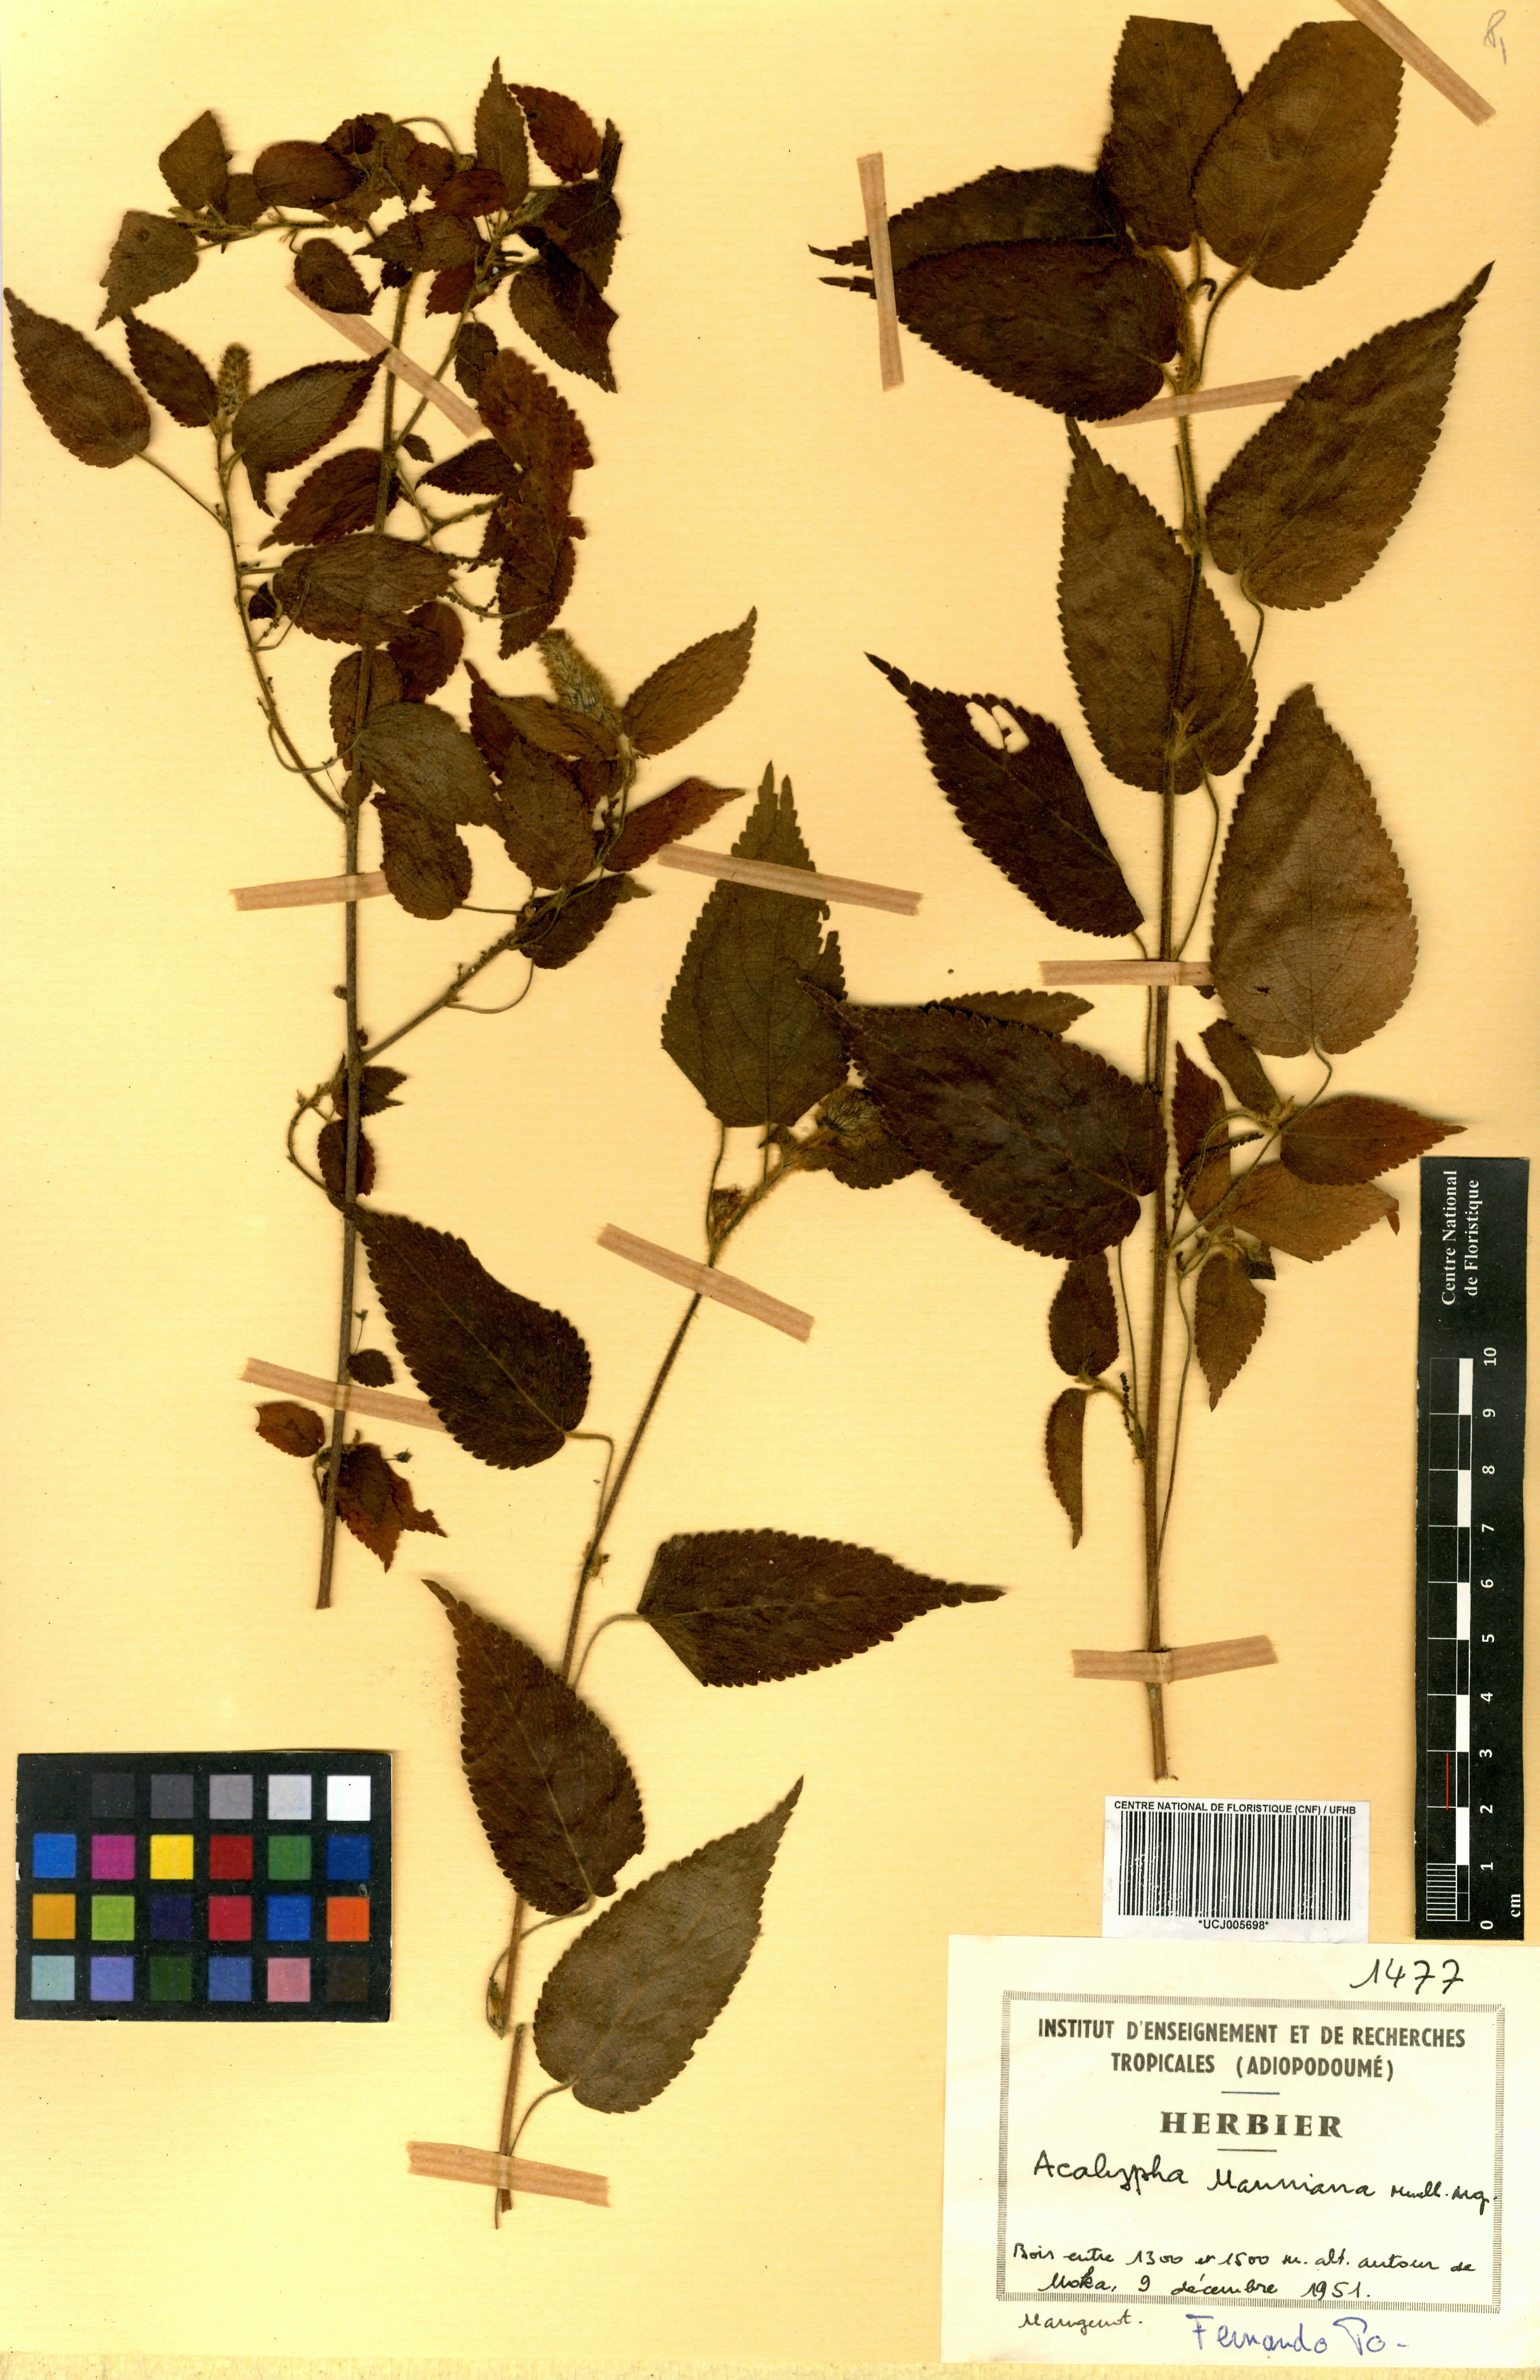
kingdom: Plantae
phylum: Tracheophyta
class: Magnoliopsida
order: Malpighiales
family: Euphorbiaceae
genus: Acalypha
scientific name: Acalypha manniana
